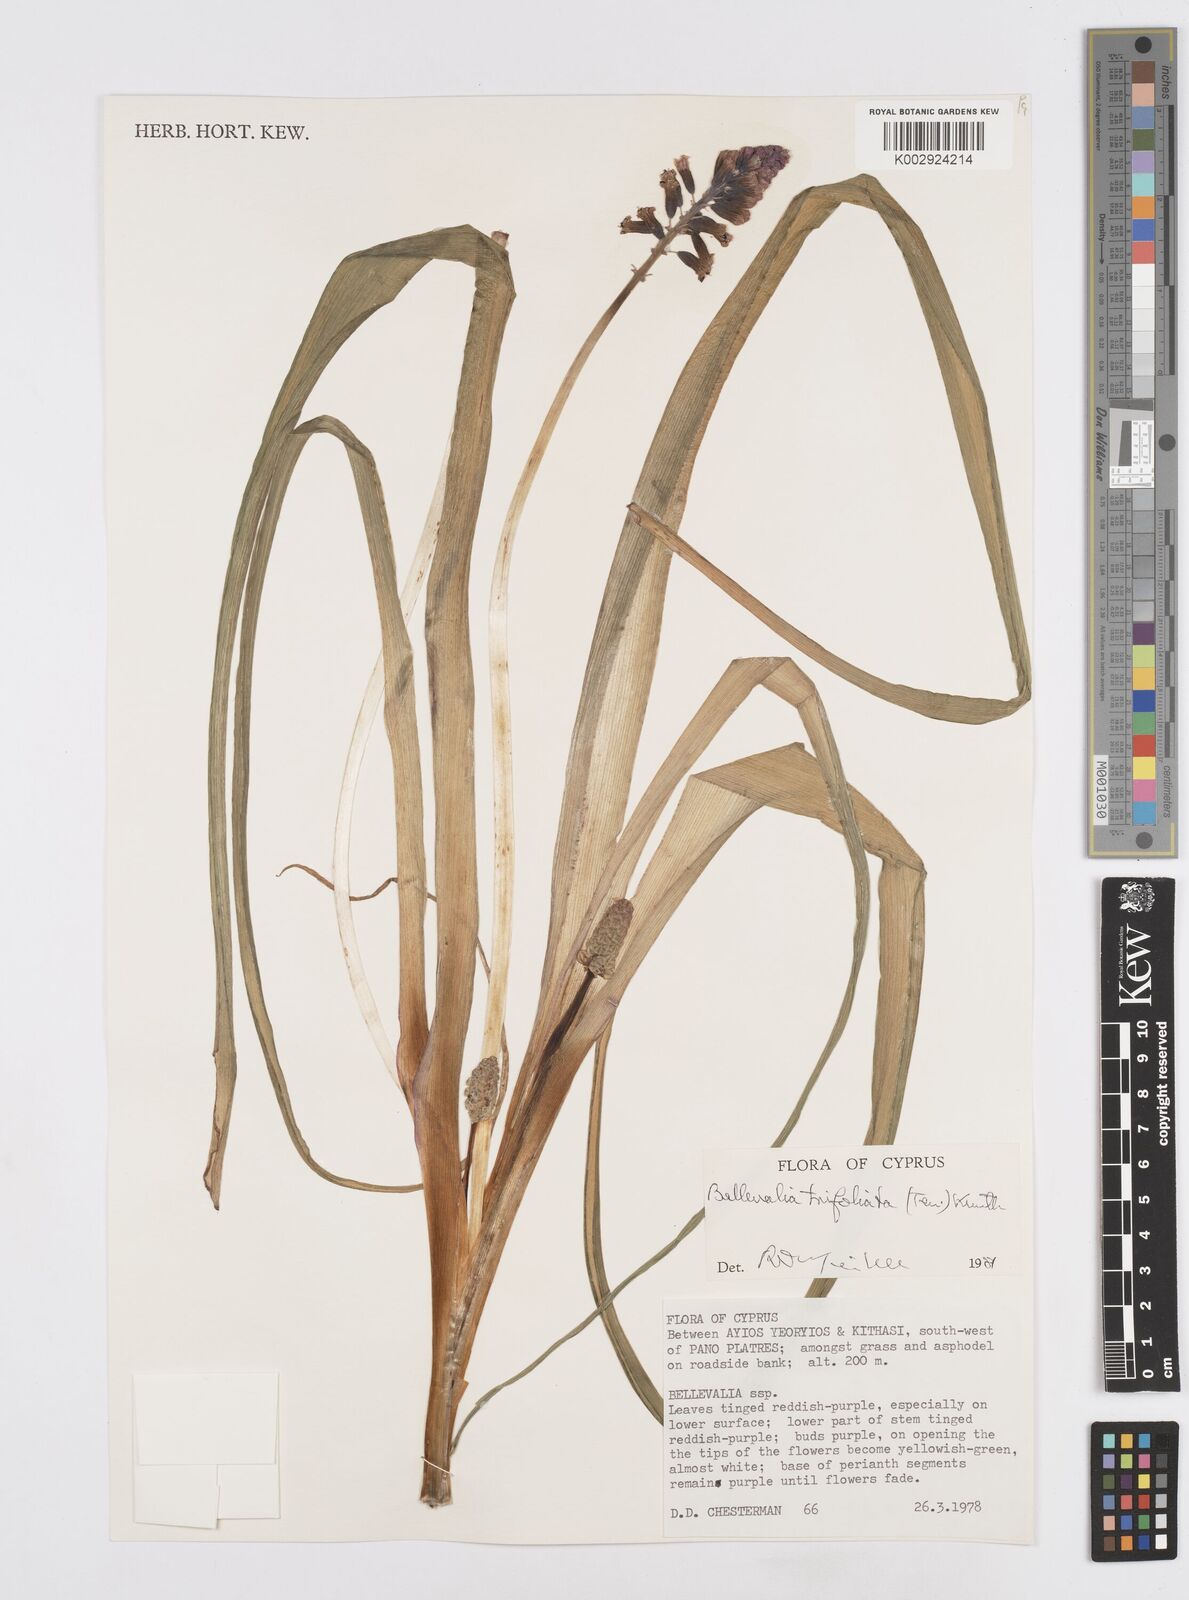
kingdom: Plantae
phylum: Tracheophyta
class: Liliopsida
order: Asparagales
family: Asparagaceae
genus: Bellevalia
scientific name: Bellevalia trifoliata
